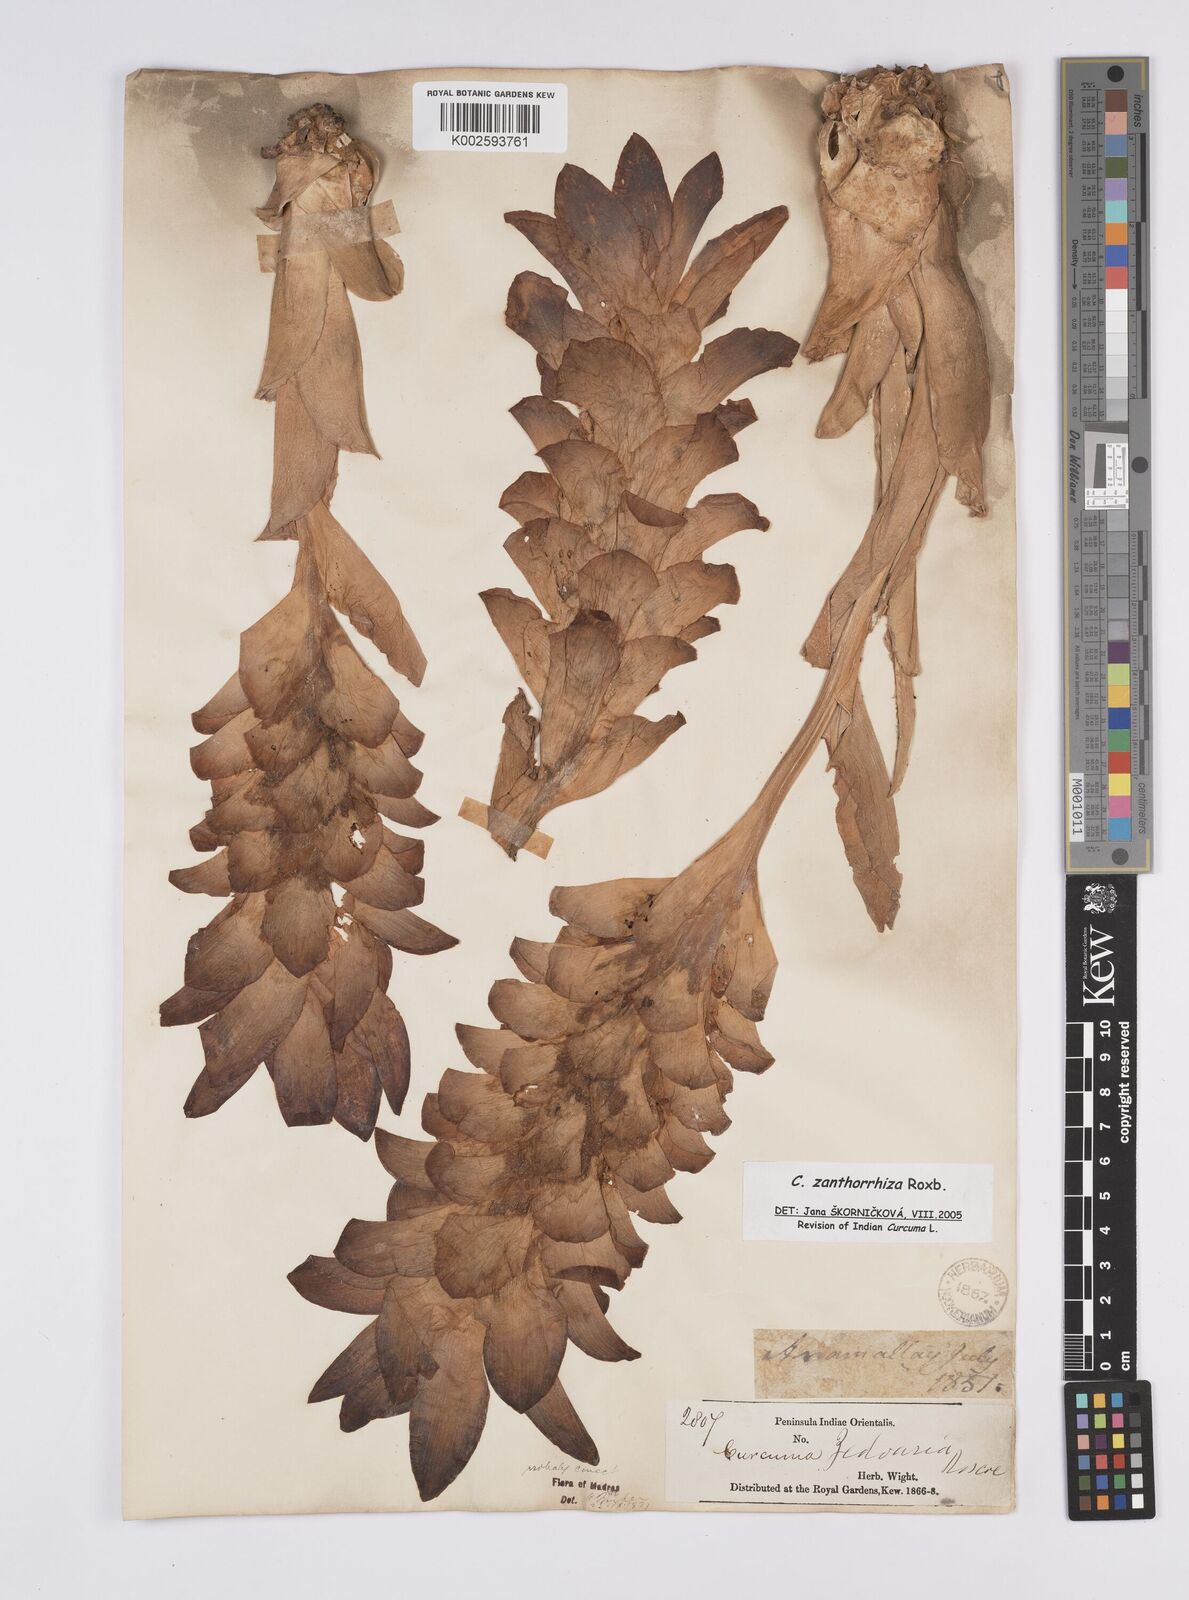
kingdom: Plantae
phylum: Tracheophyta
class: Liliopsida
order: Zingiberales
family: Zingiberaceae
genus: Curcuma
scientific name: Curcuma zanthorrhiza
